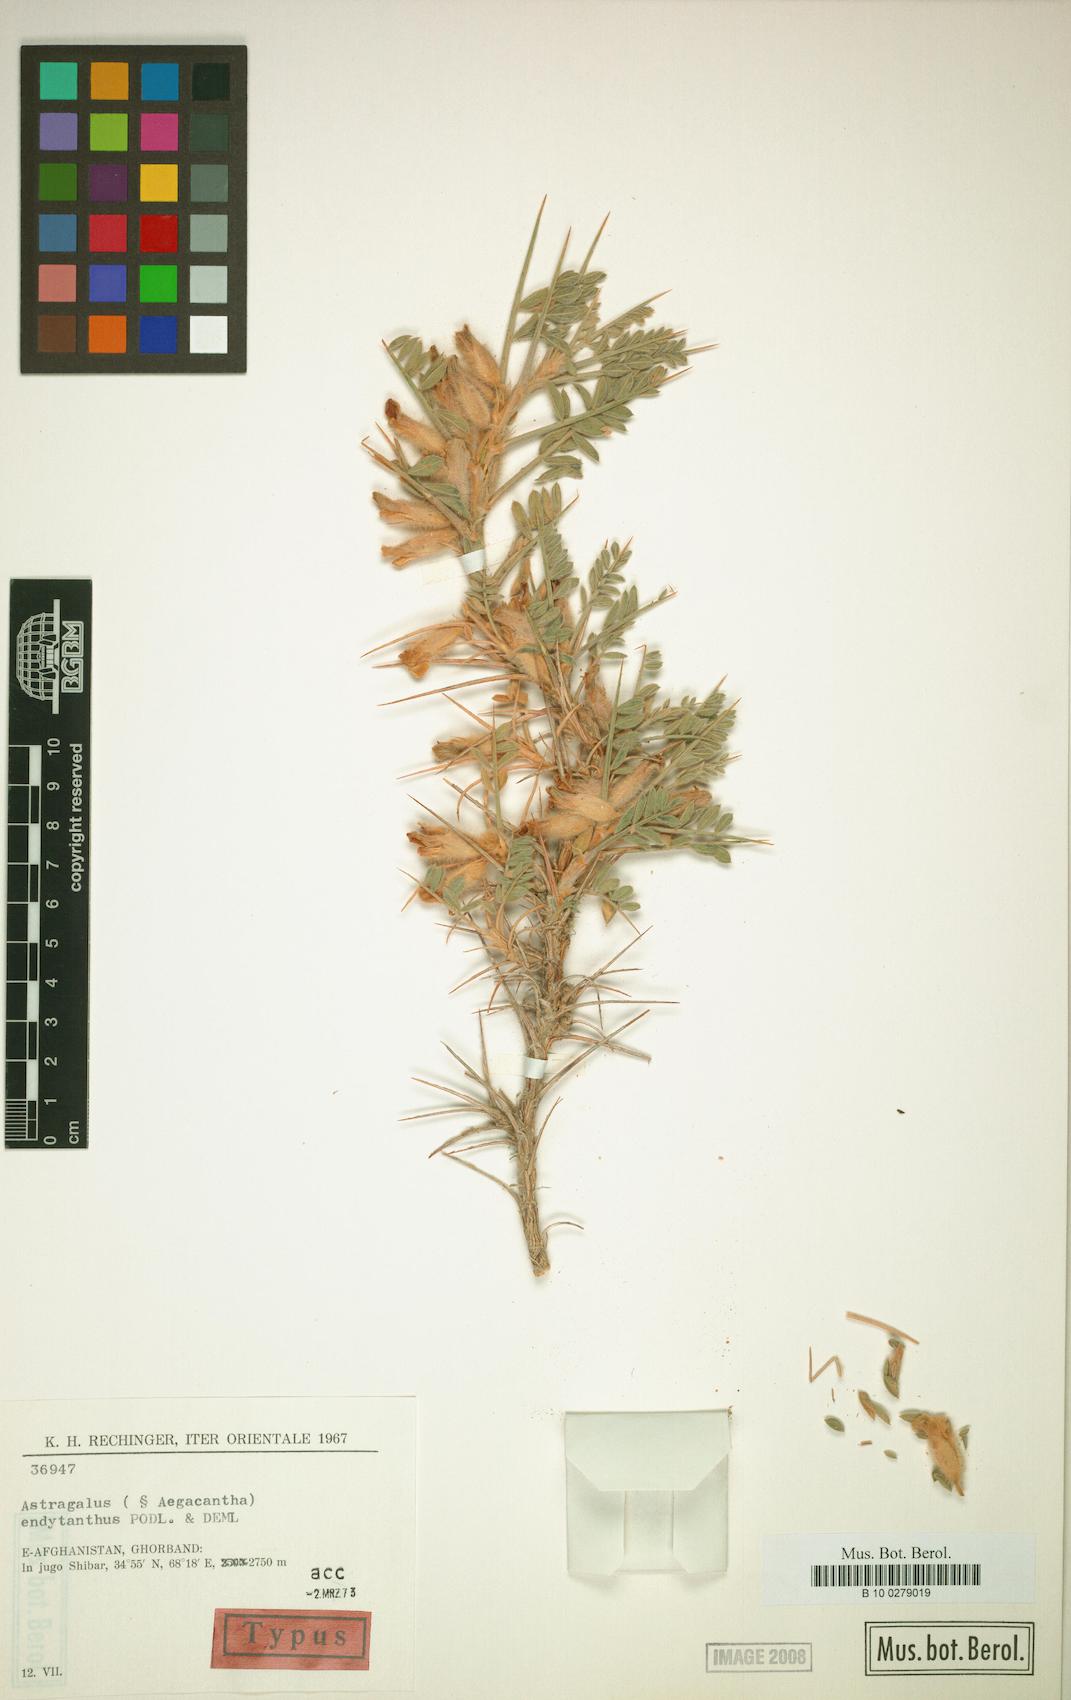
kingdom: Plantae
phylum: Tracheophyta
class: Magnoliopsida
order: Fabales
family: Fabaceae
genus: Astragalus
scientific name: Astragalus endytanthus
